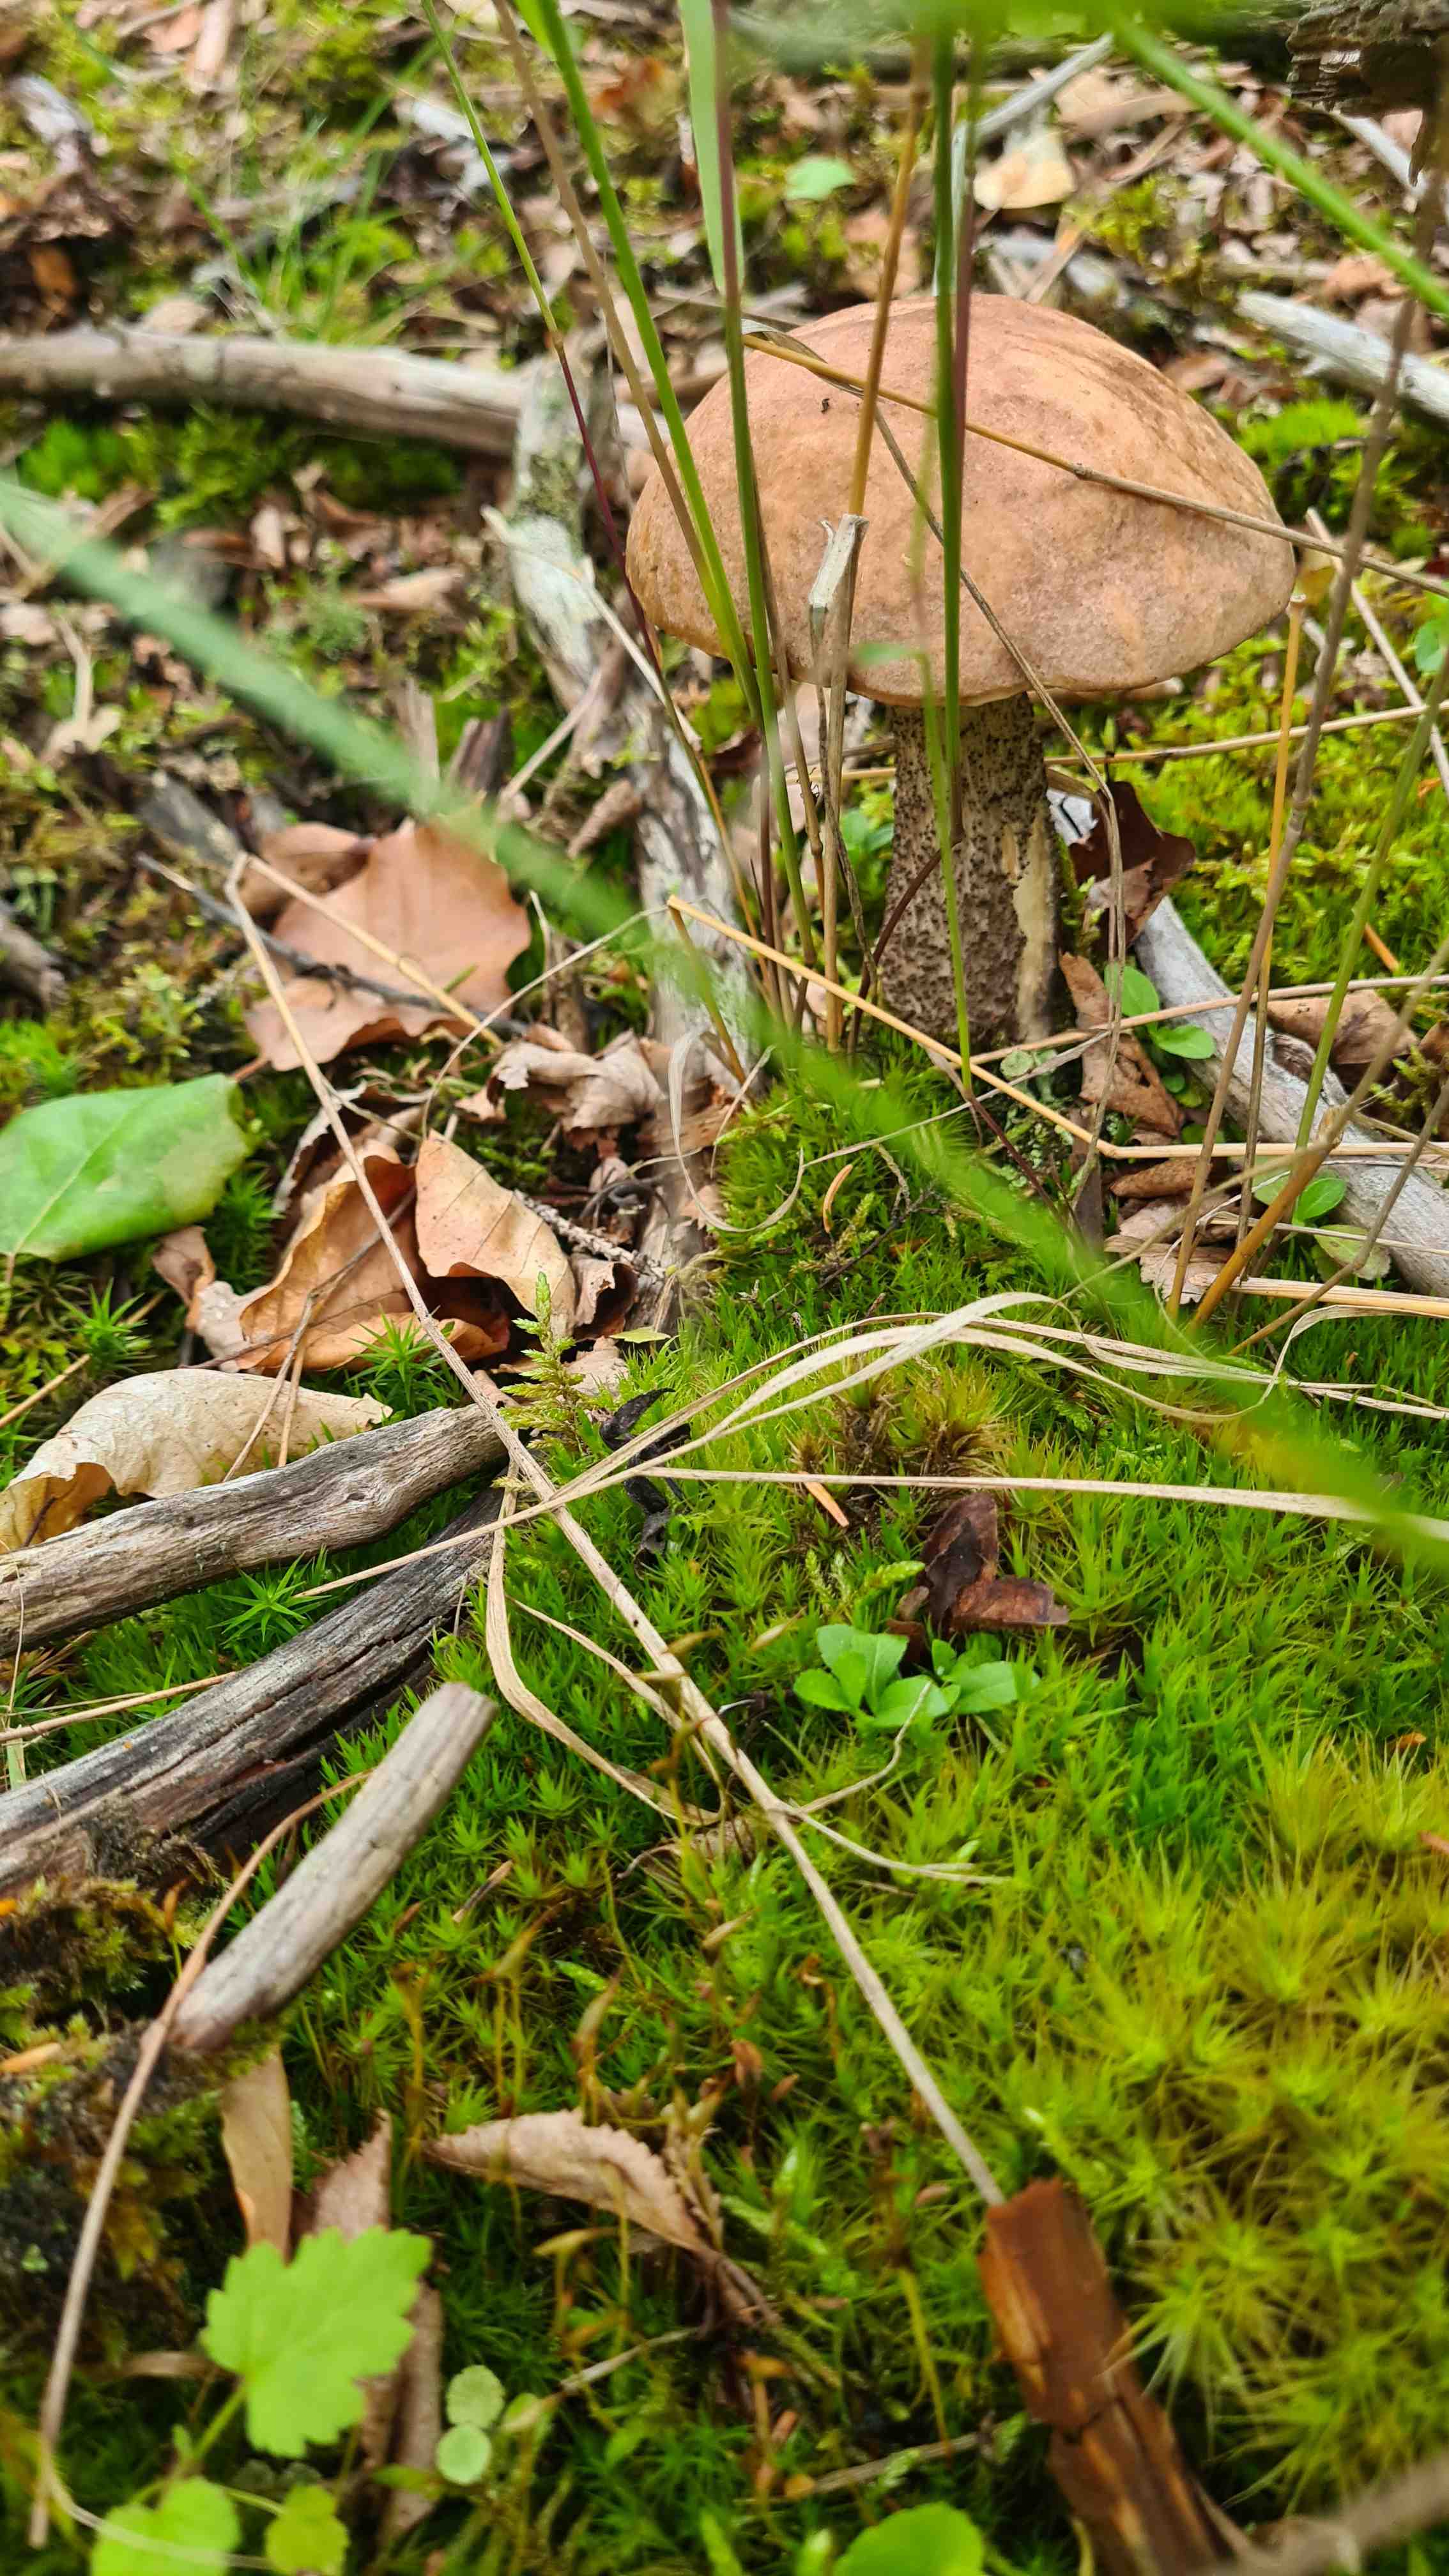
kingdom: Fungi
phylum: Basidiomycota
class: Agaricomycetes
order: Boletales
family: Boletaceae
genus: Leccinum
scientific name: Leccinum scabrum
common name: brun skælrørhat
